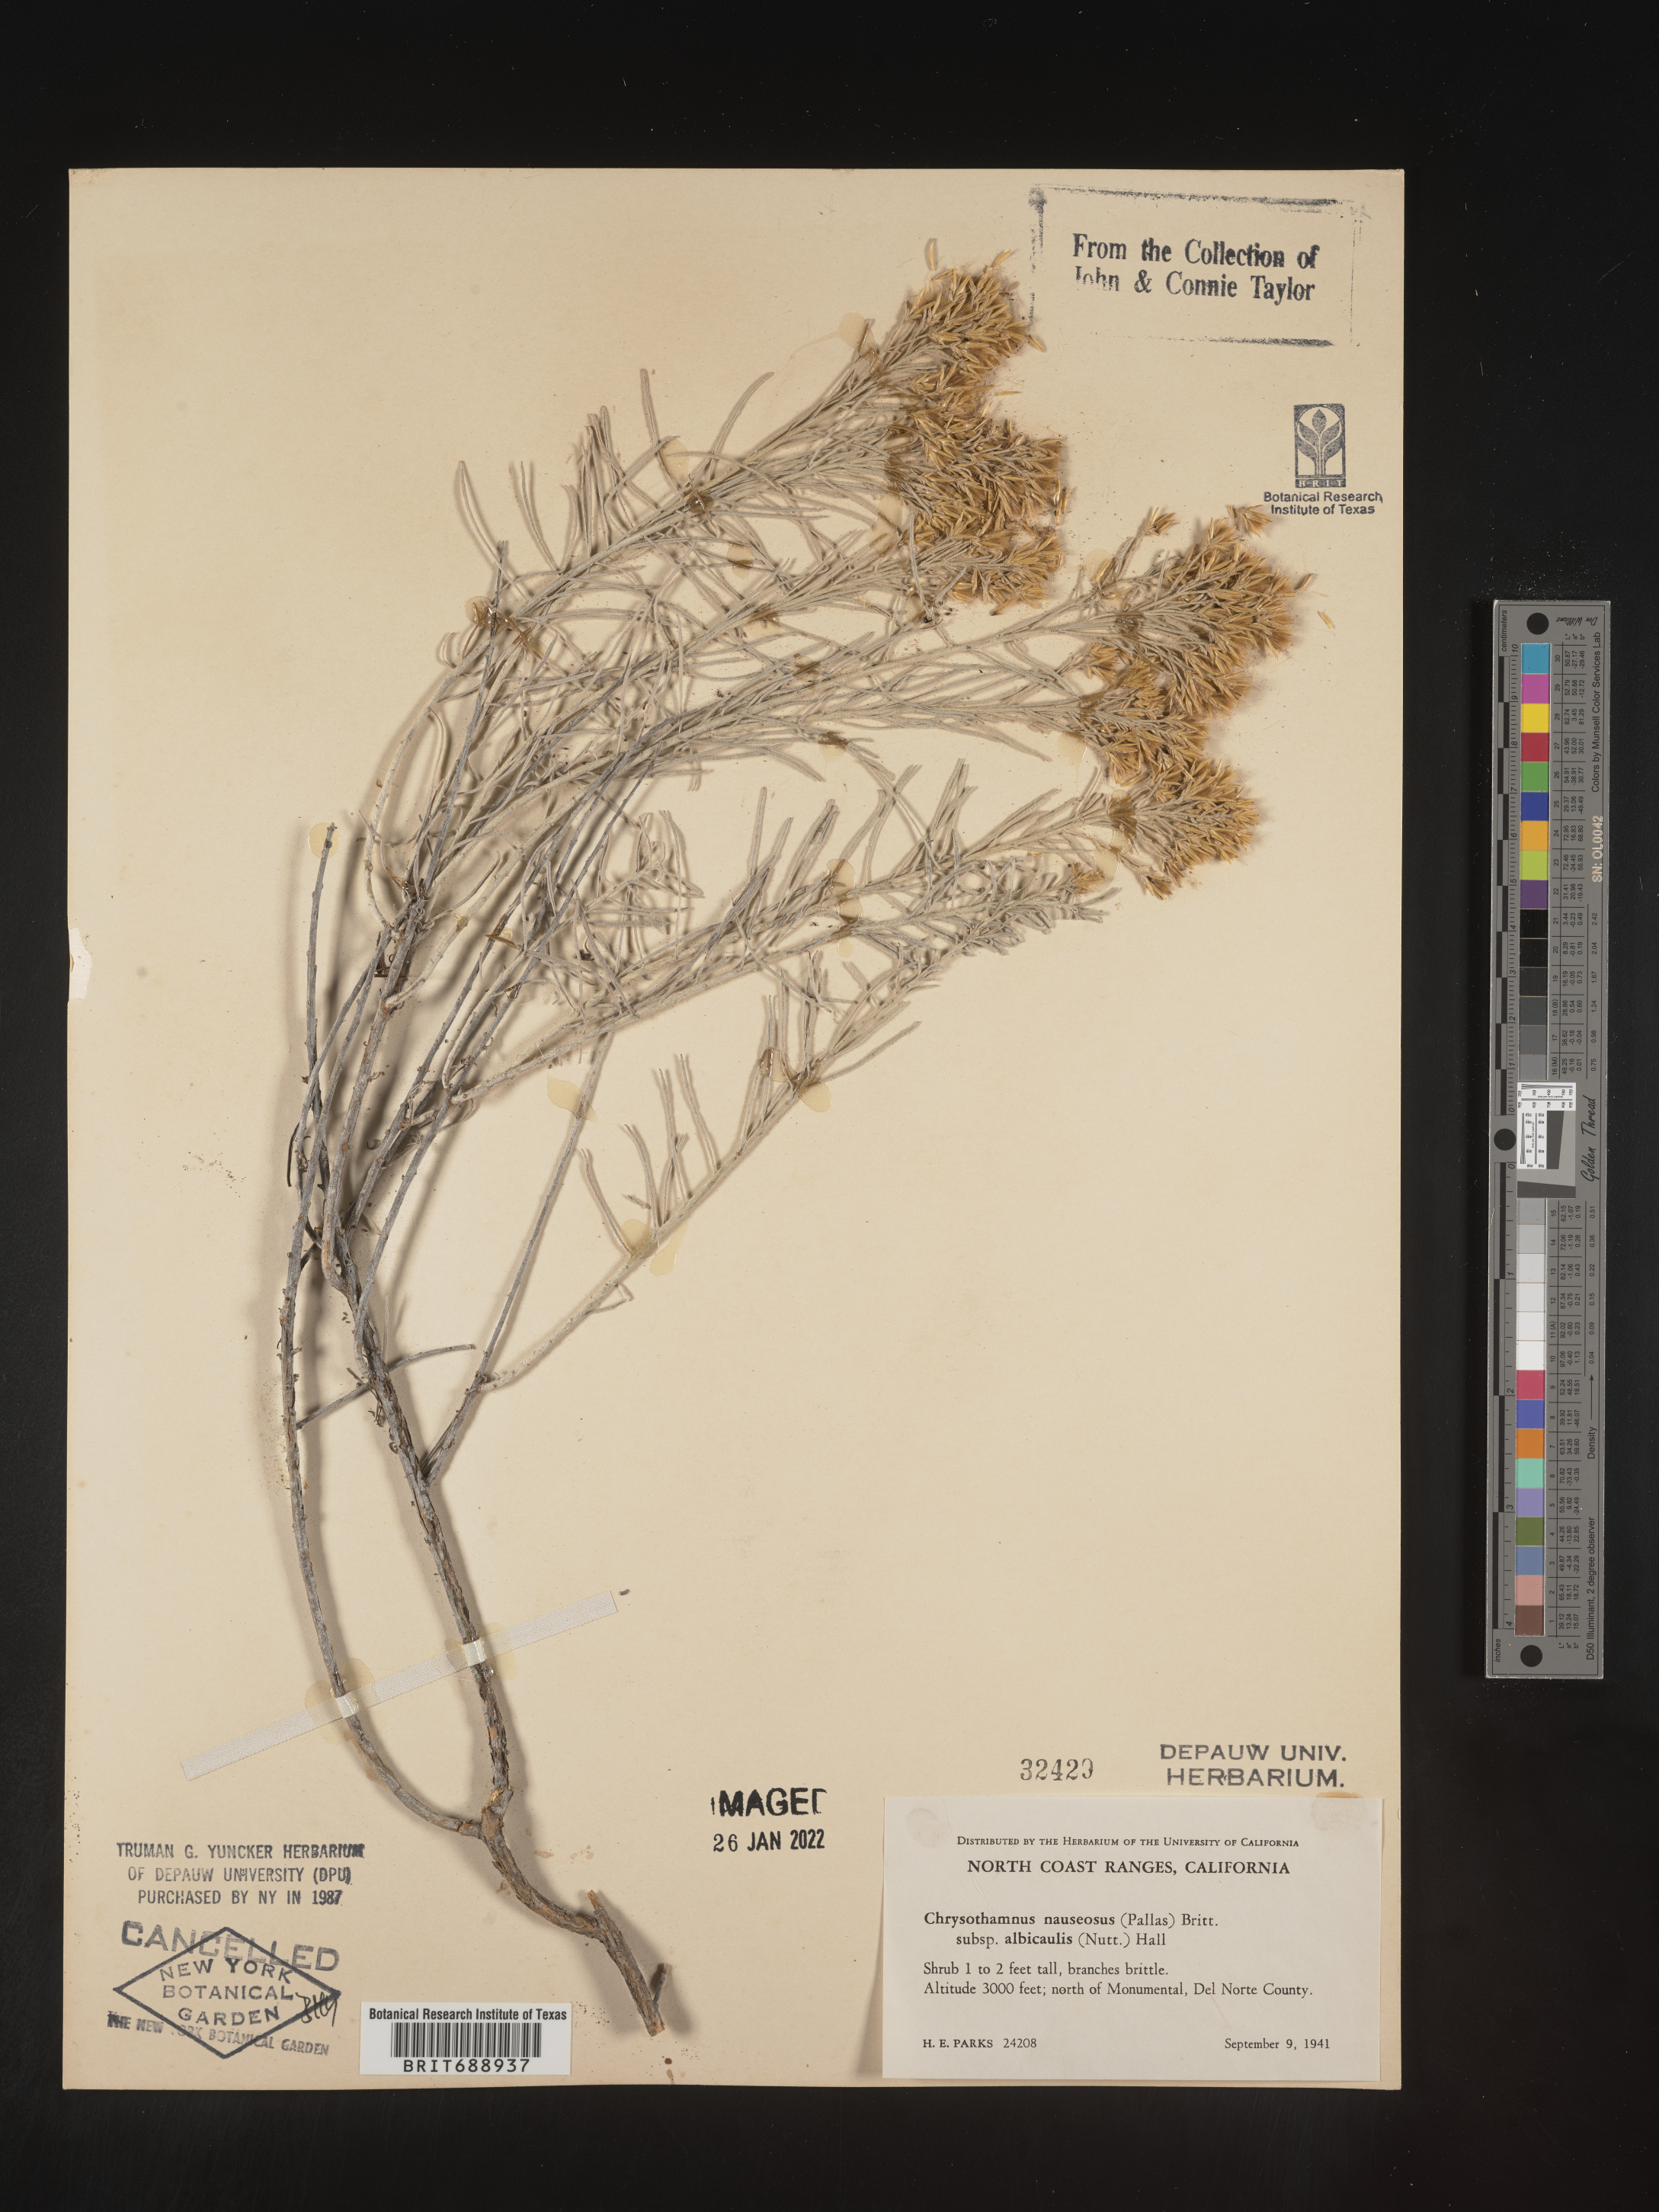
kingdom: Plantae
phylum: Tracheophyta
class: Magnoliopsida
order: Asterales
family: Asteraceae
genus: Ericameria
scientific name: Ericameria nauseosa
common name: Rubber rabbitbrush
